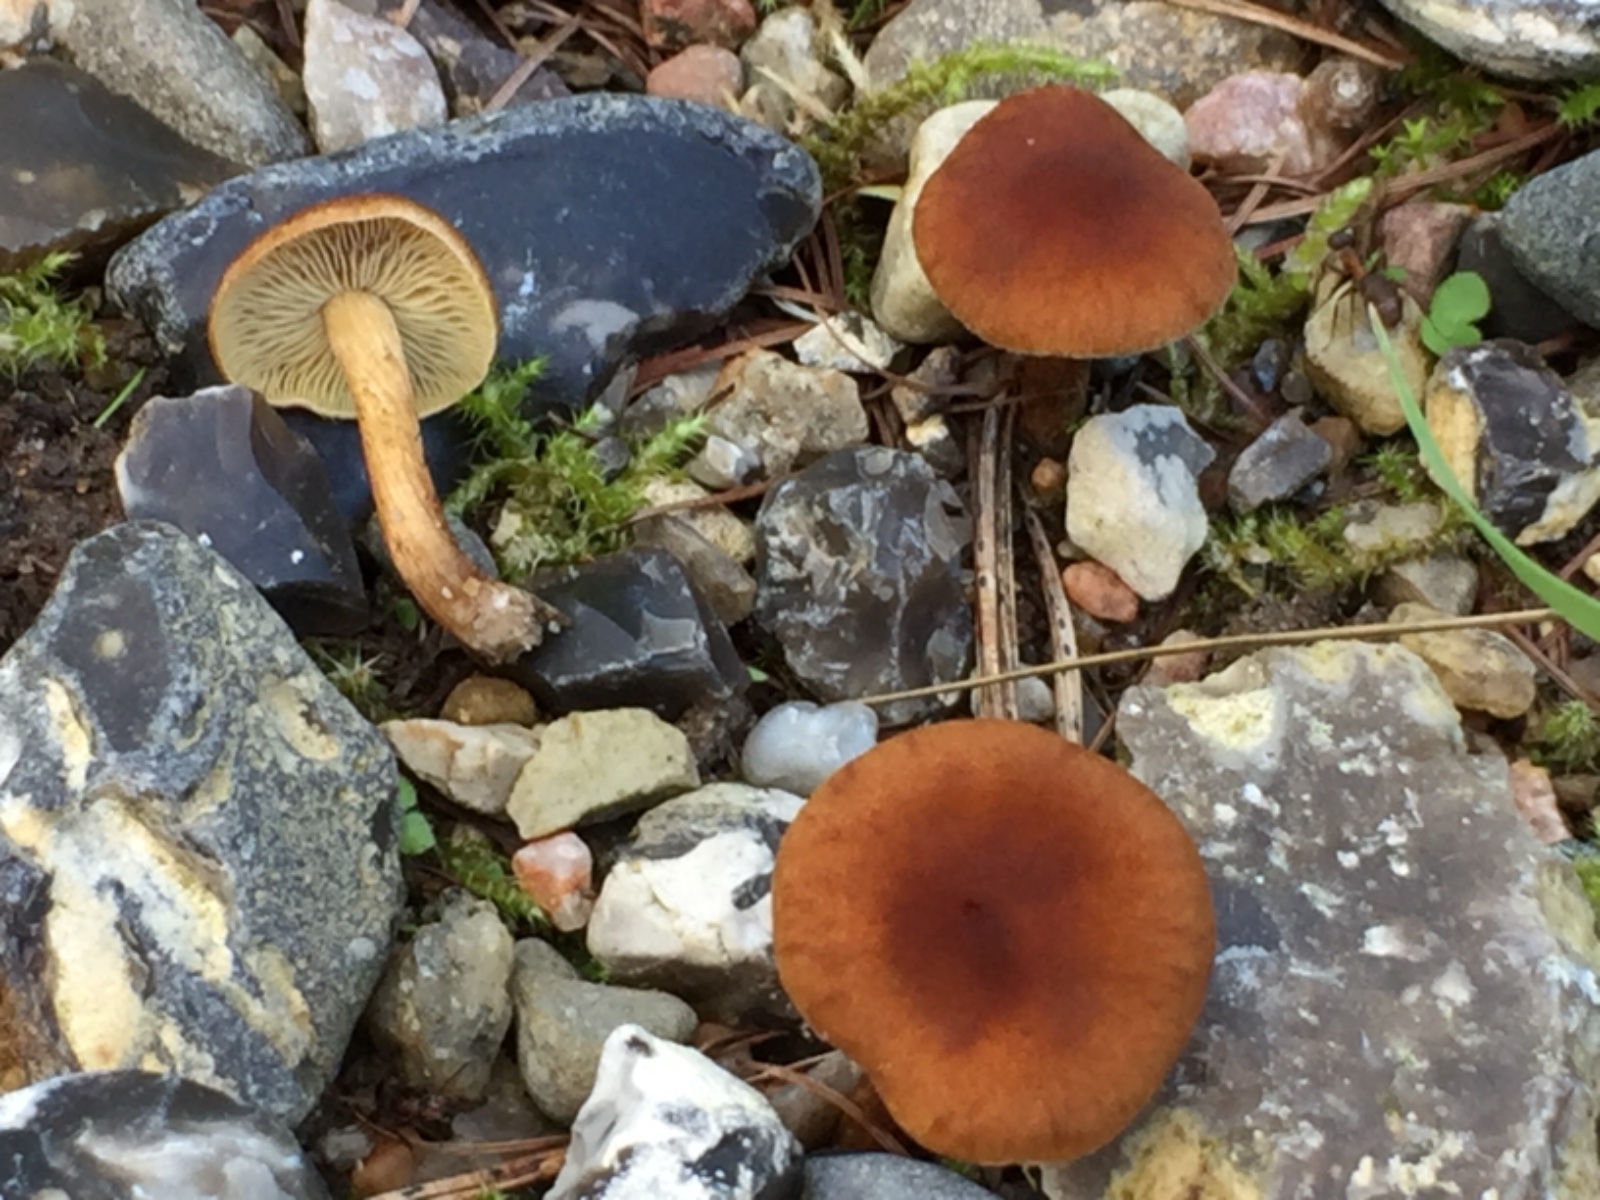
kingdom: Fungi
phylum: Basidiomycota
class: Agaricomycetes
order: Agaricales
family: Inocybaceae
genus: Mallocybe
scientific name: Mallocybe
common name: Trævlhat
